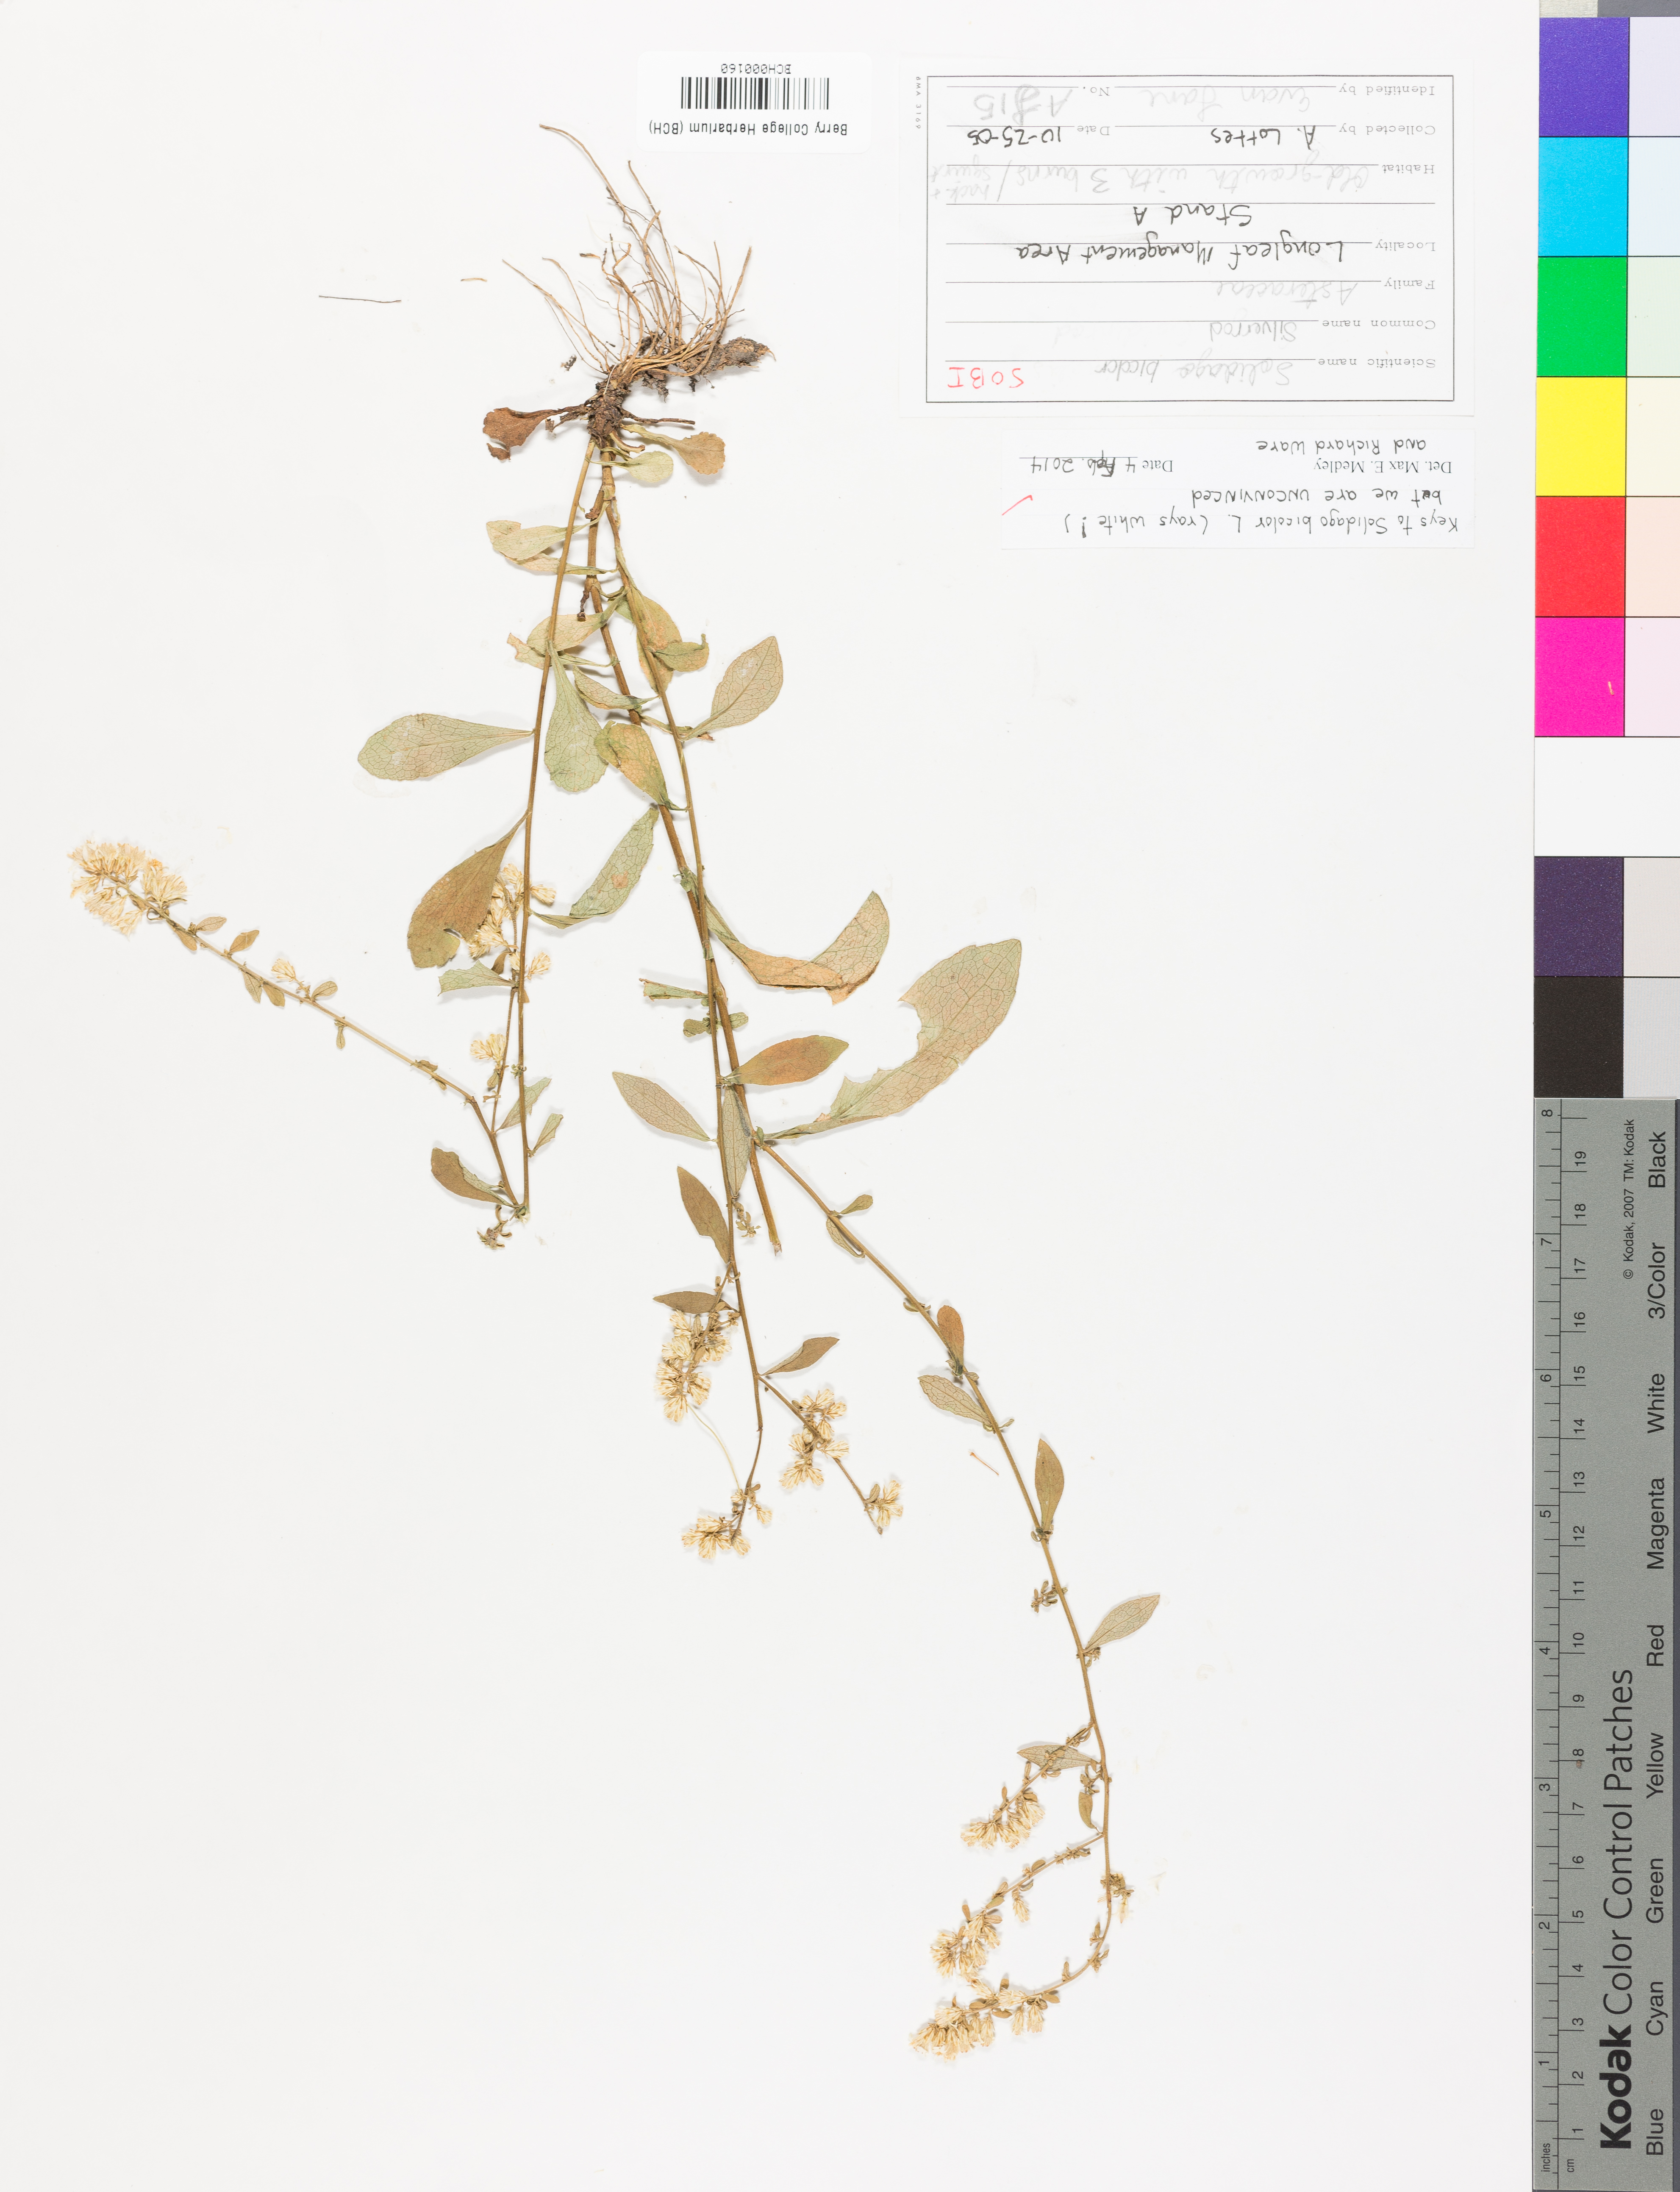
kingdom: Plantae
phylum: Tracheophyta
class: Magnoliopsida
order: Asterales
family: Asteraceae
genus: Solidago
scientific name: Solidago bicolor
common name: Silverrod
